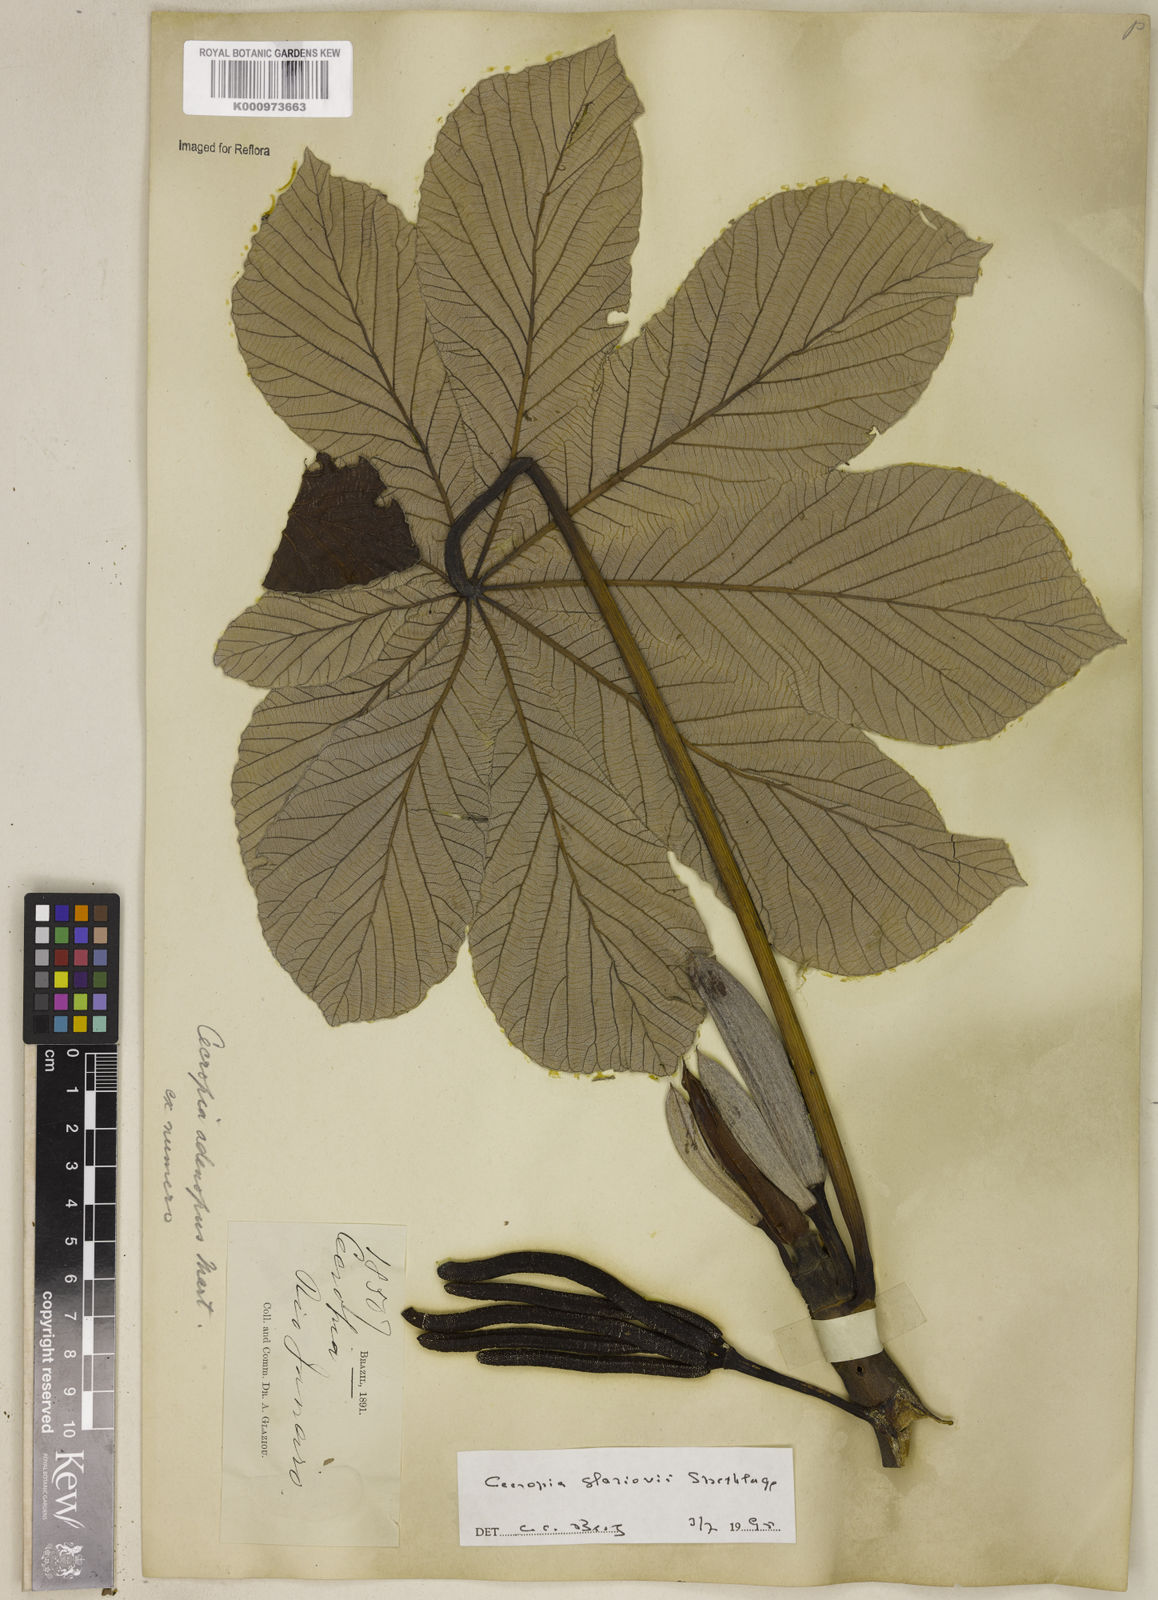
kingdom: Plantae
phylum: Tracheophyta
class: Magnoliopsida
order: Rosales
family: Urticaceae
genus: Cecropia
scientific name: Cecropia glaziovii
